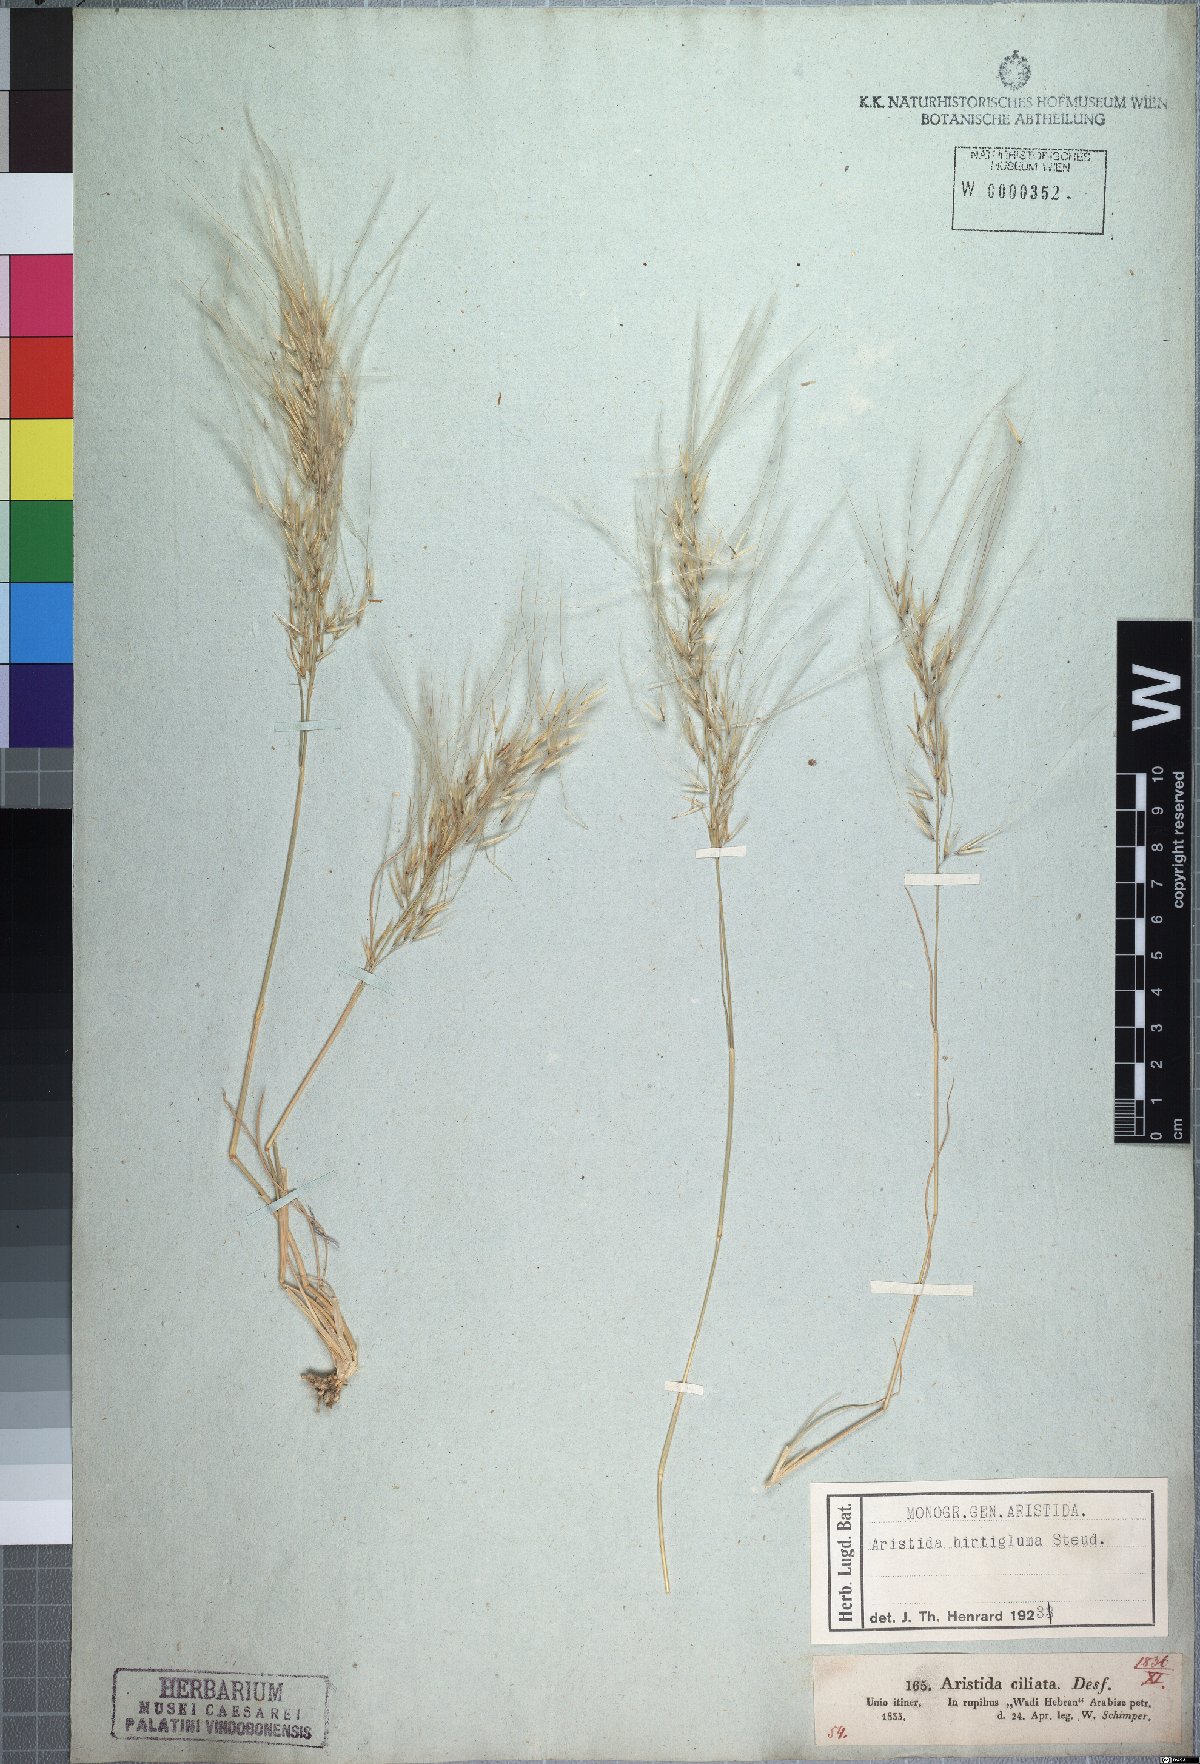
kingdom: Plantae
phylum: Tracheophyta
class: Liliopsida
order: Poales
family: Poaceae
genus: Stipagrostis
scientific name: Stipagrostis hirtigluma
